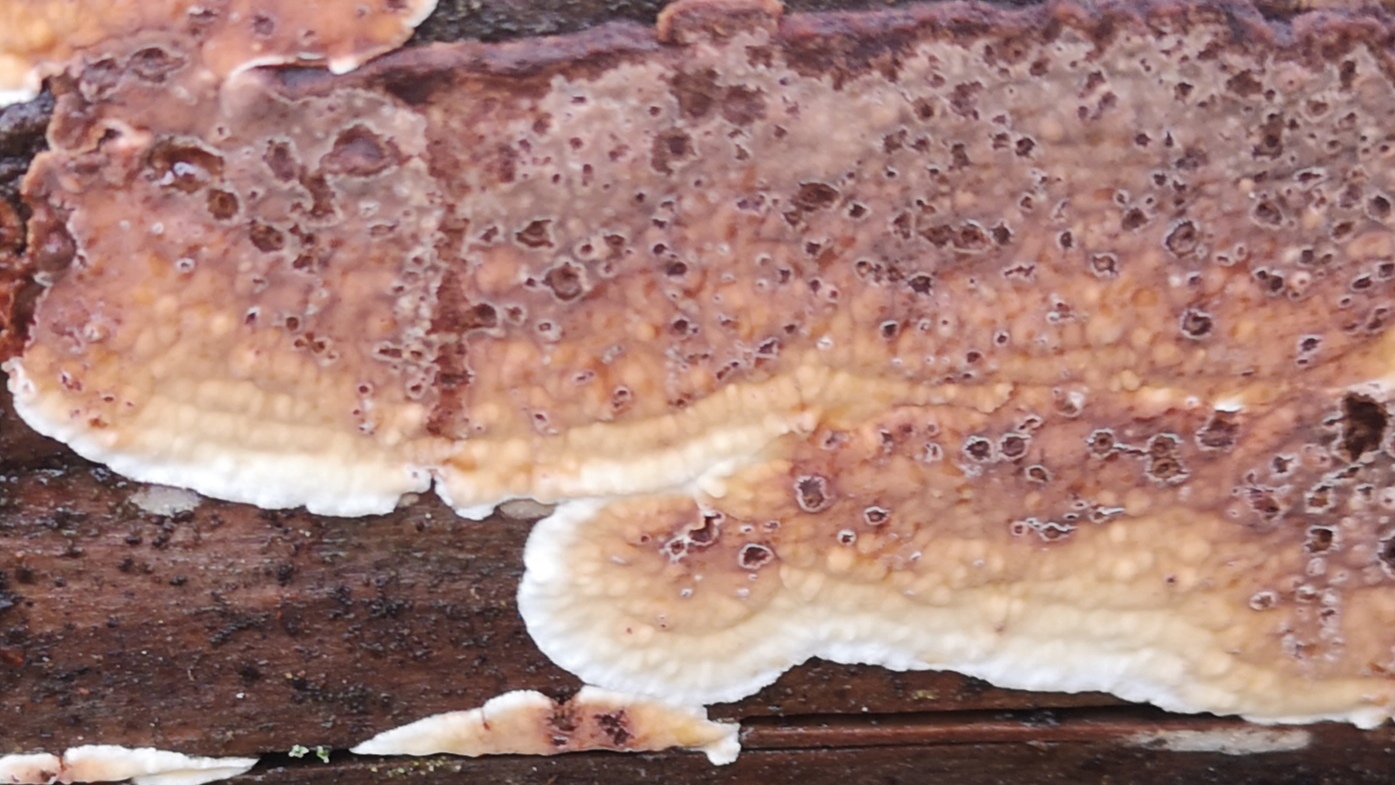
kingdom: Fungi
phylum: Basidiomycota
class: Agaricomycetes
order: Polyporales
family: Dacryobolaceae
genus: Dacryobolus
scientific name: Dacryobolus karstenii
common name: glat vulkanskorpe
